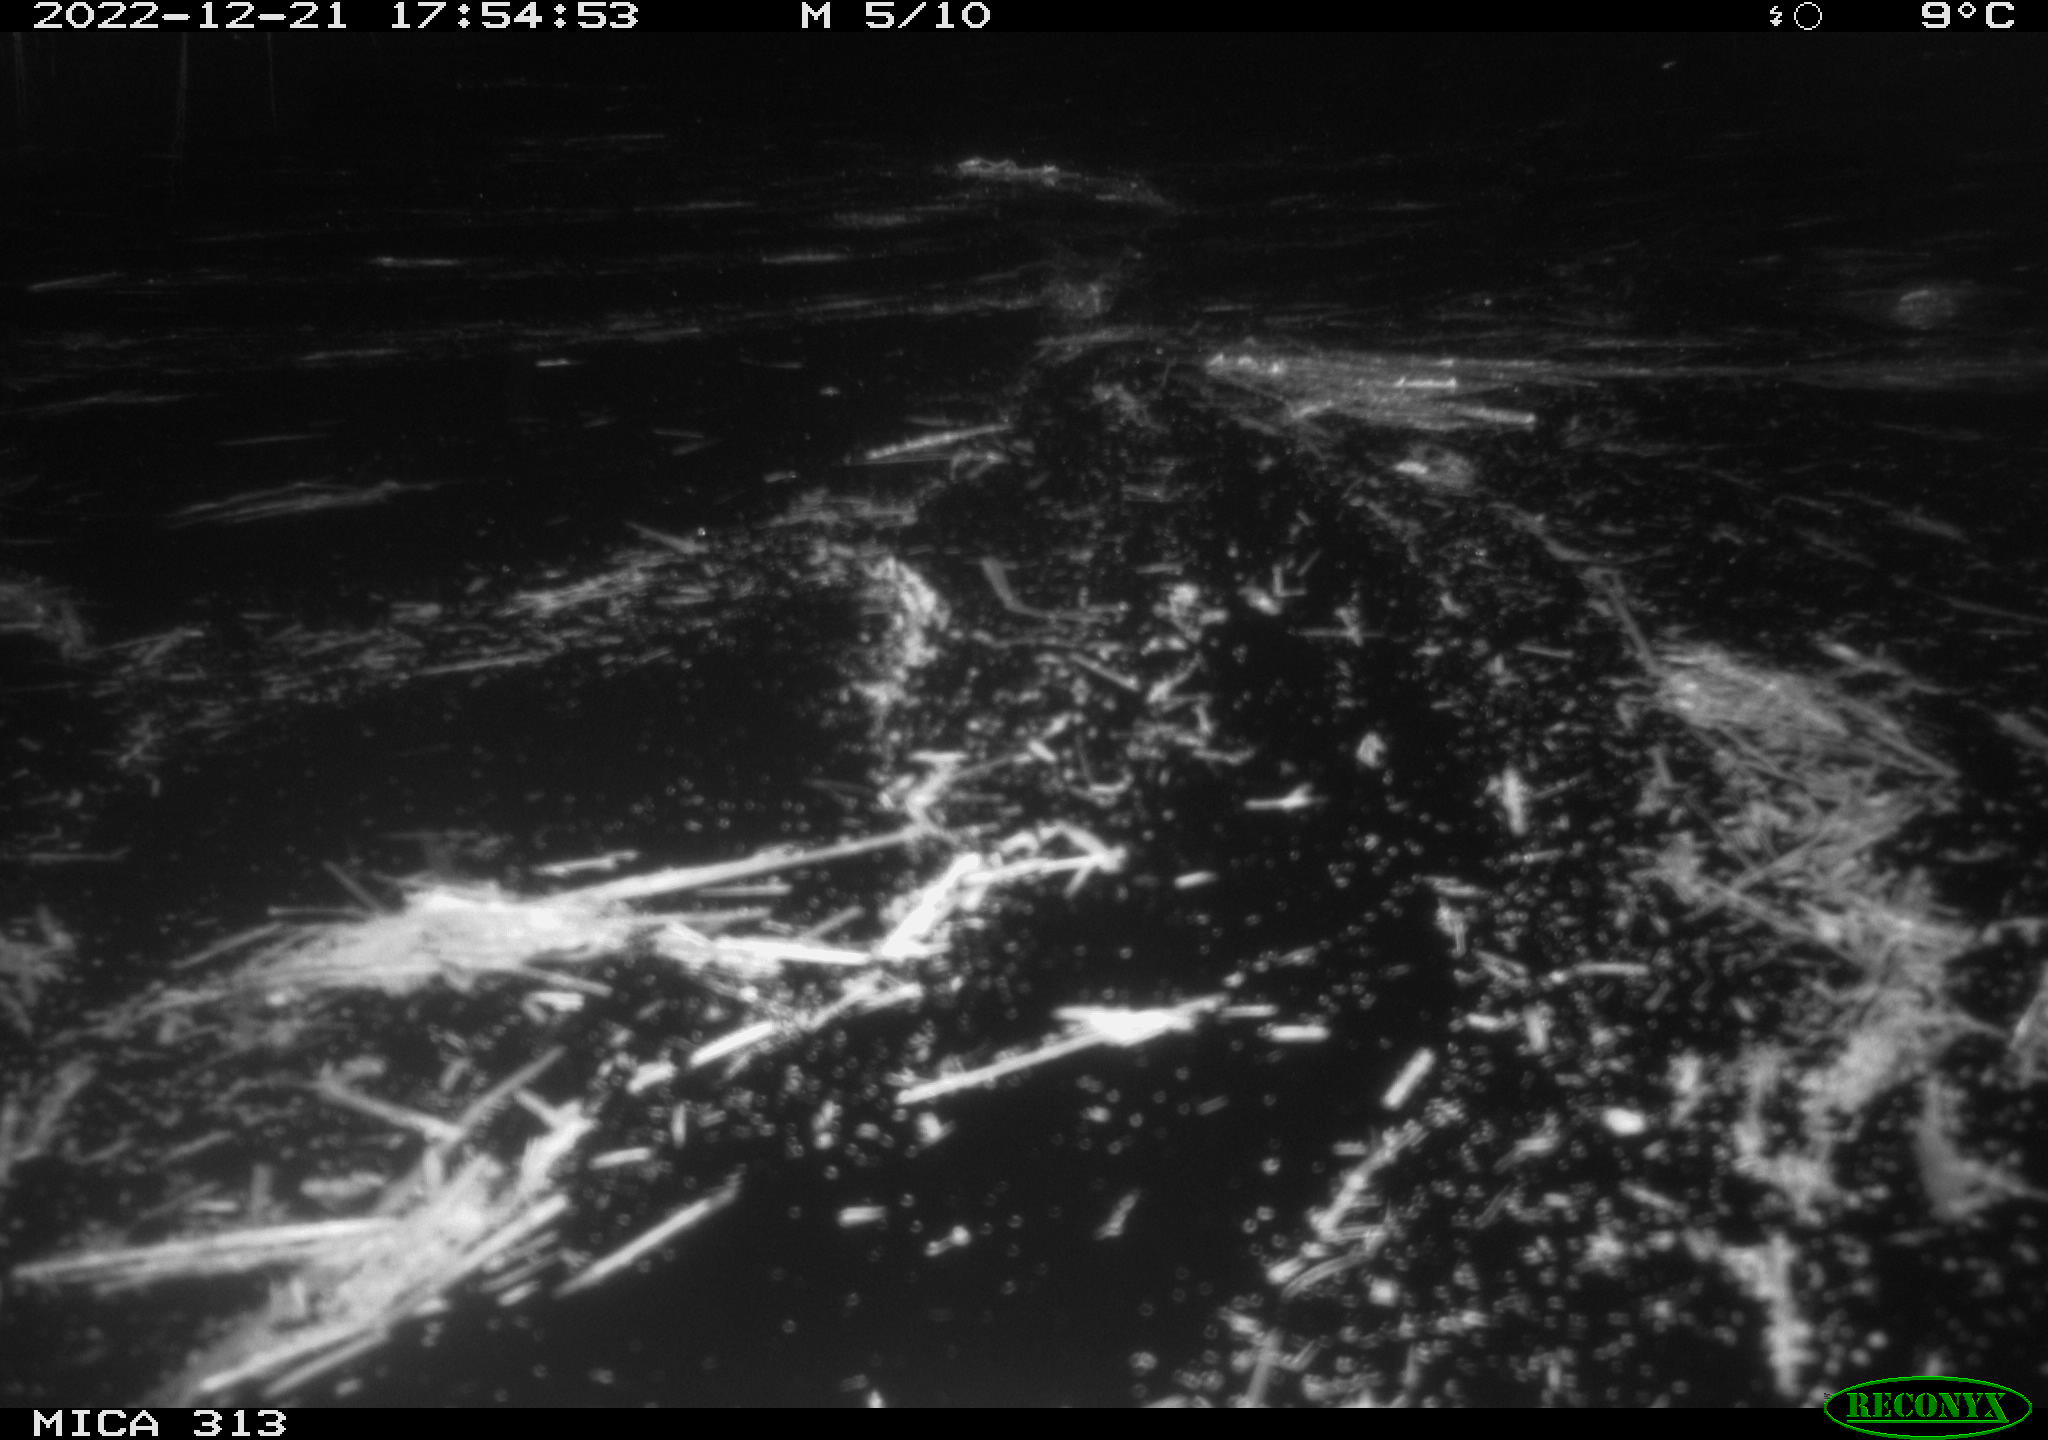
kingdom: Animalia
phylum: Chordata
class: Aves
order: Gruiformes
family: Rallidae
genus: Gallinula
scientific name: Gallinula chloropus
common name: Common moorhen
